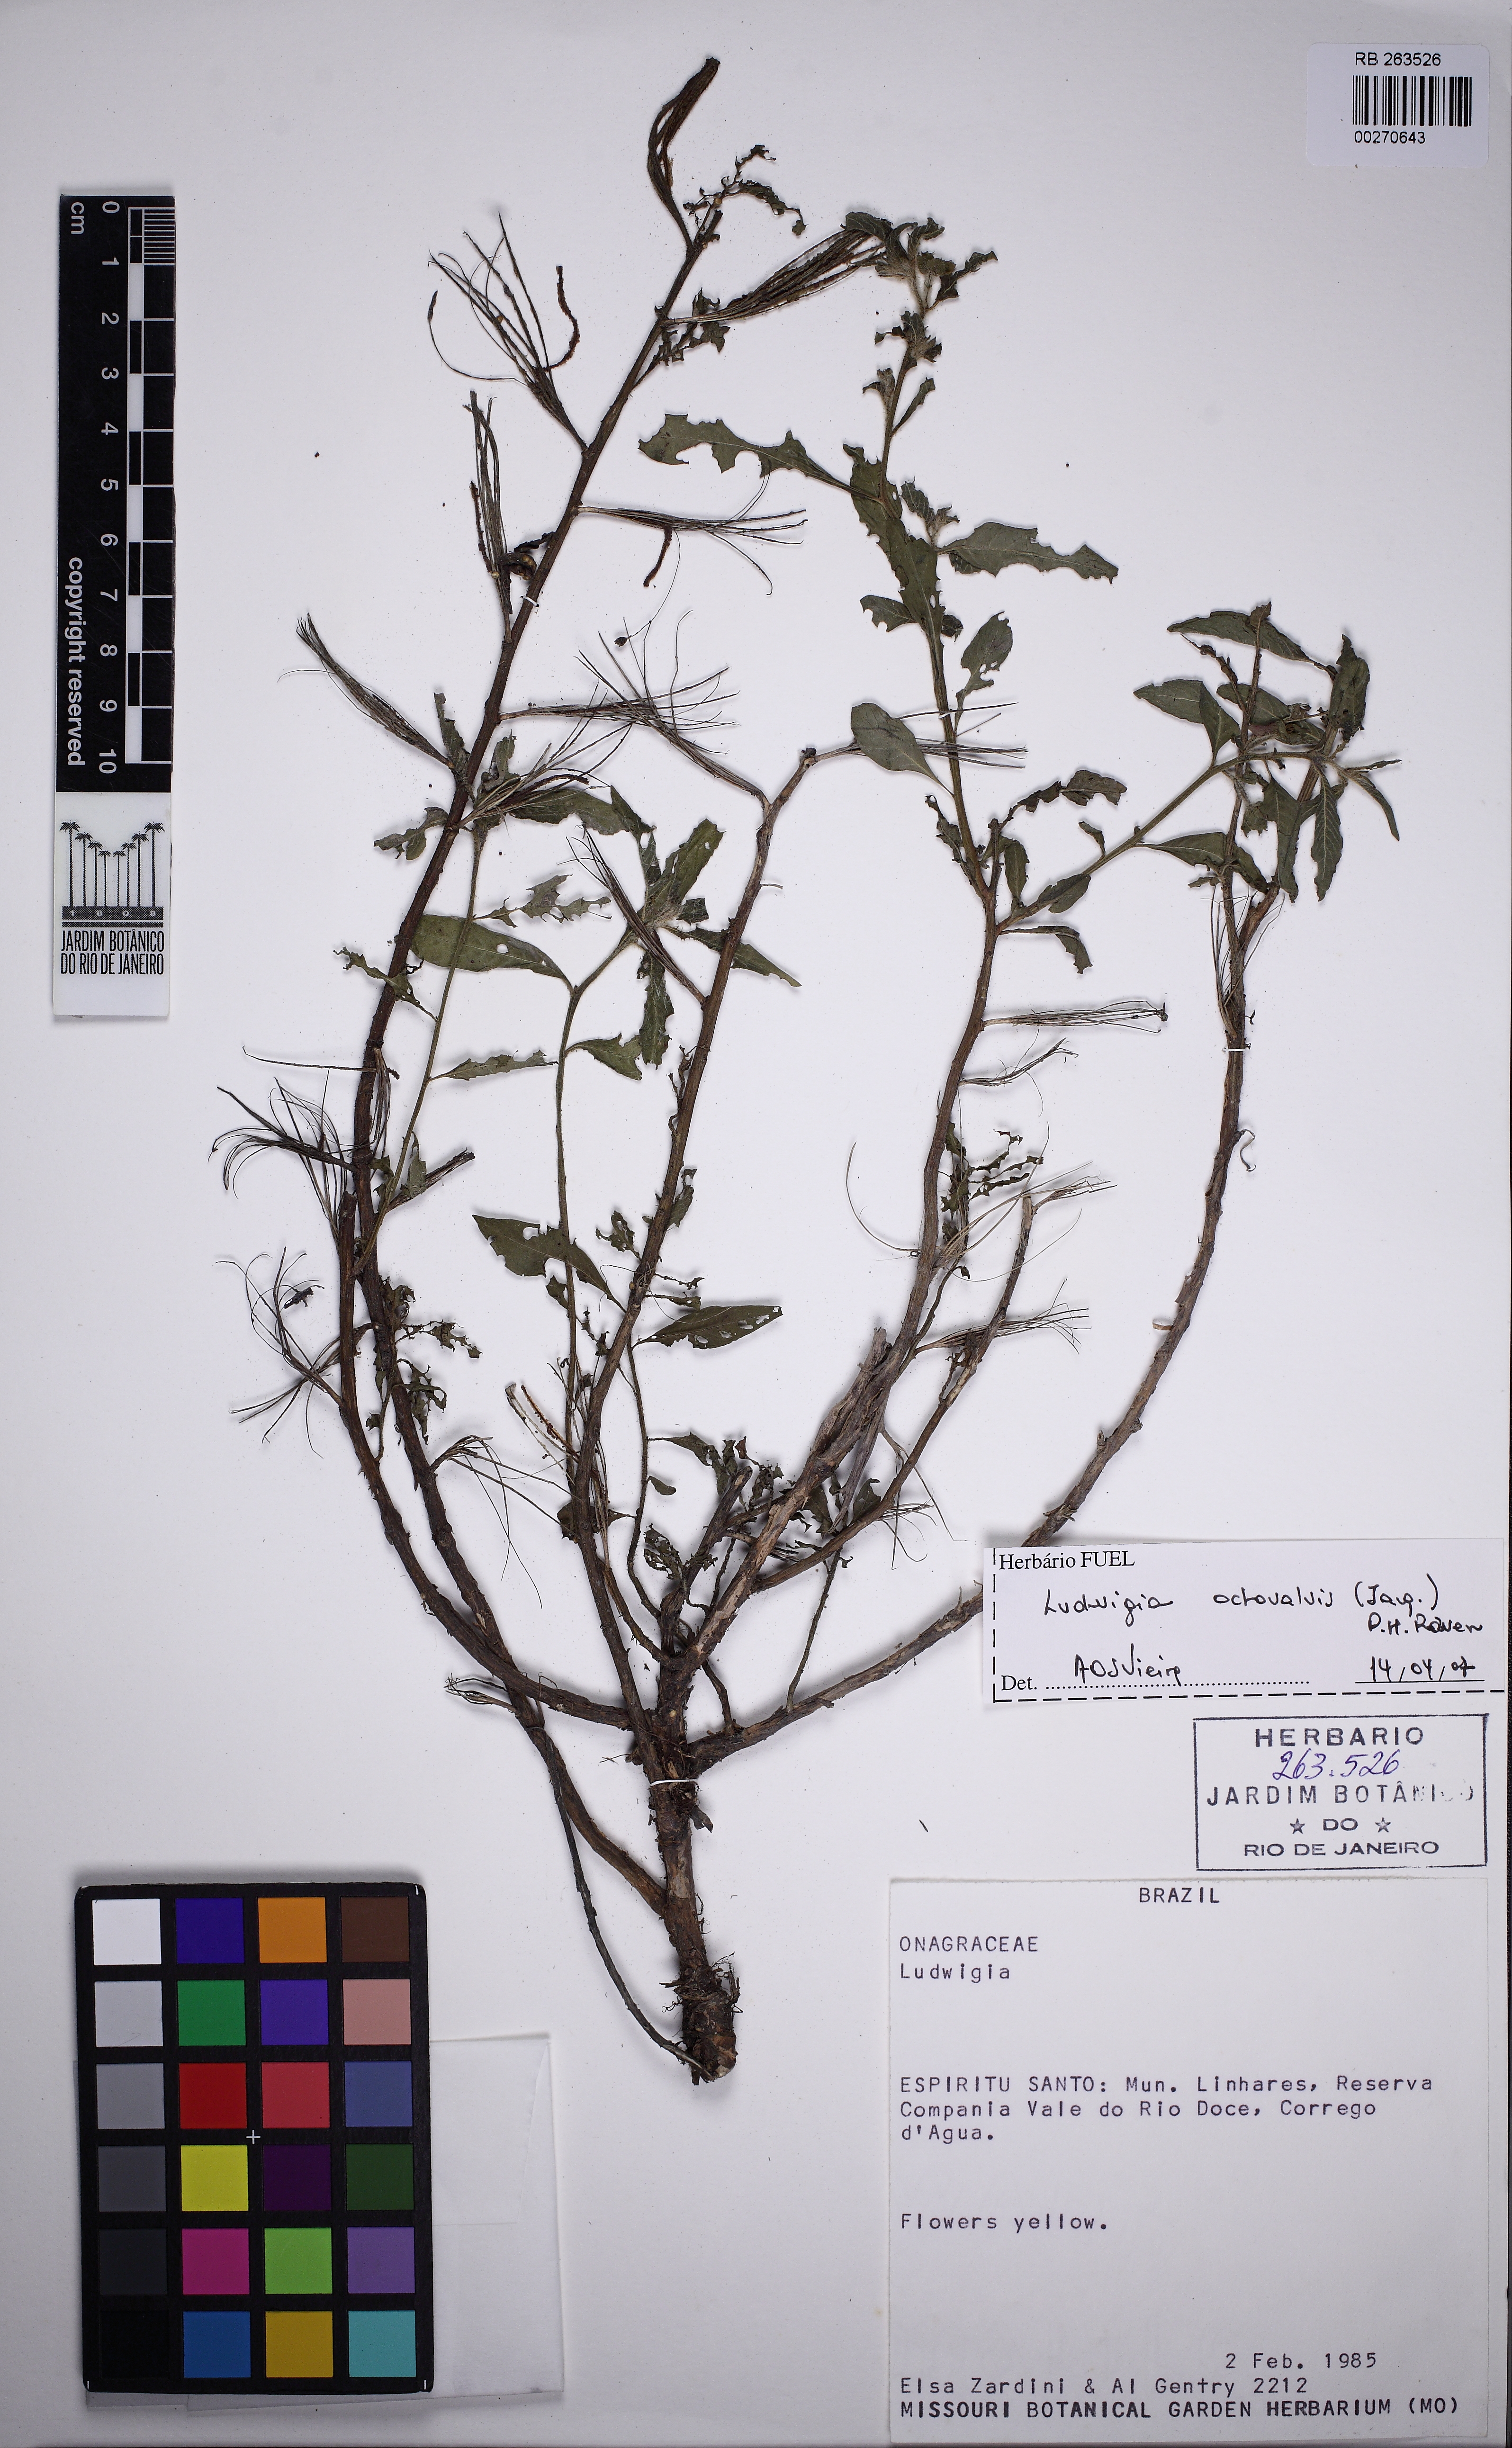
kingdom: Plantae
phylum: Tracheophyta
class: Magnoliopsida
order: Myrtales
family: Onagraceae
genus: Ludwigia
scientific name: Ludwigia octovalvis
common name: Water-primrose
